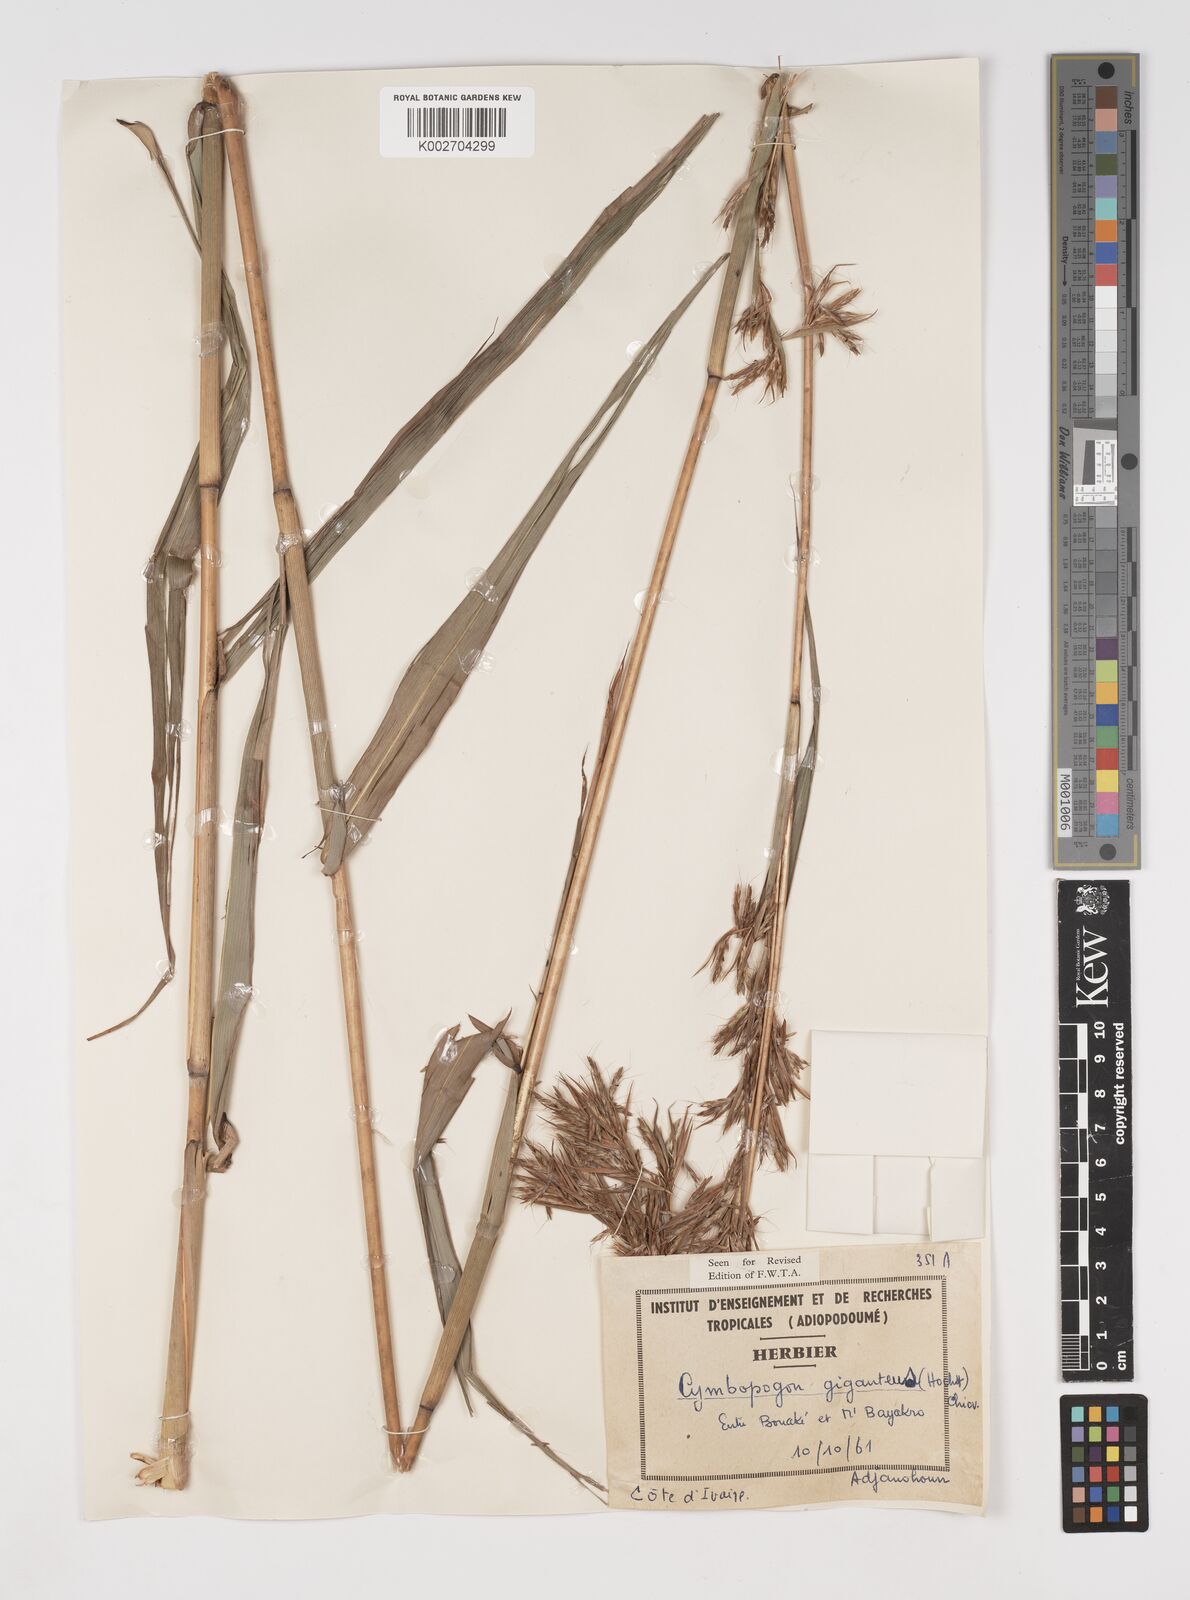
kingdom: Plantae
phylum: Tracheophyta
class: Liliopsida
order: Poales
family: Poaceae
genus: Cymbopogon
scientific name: Cymbopogon giganteus
